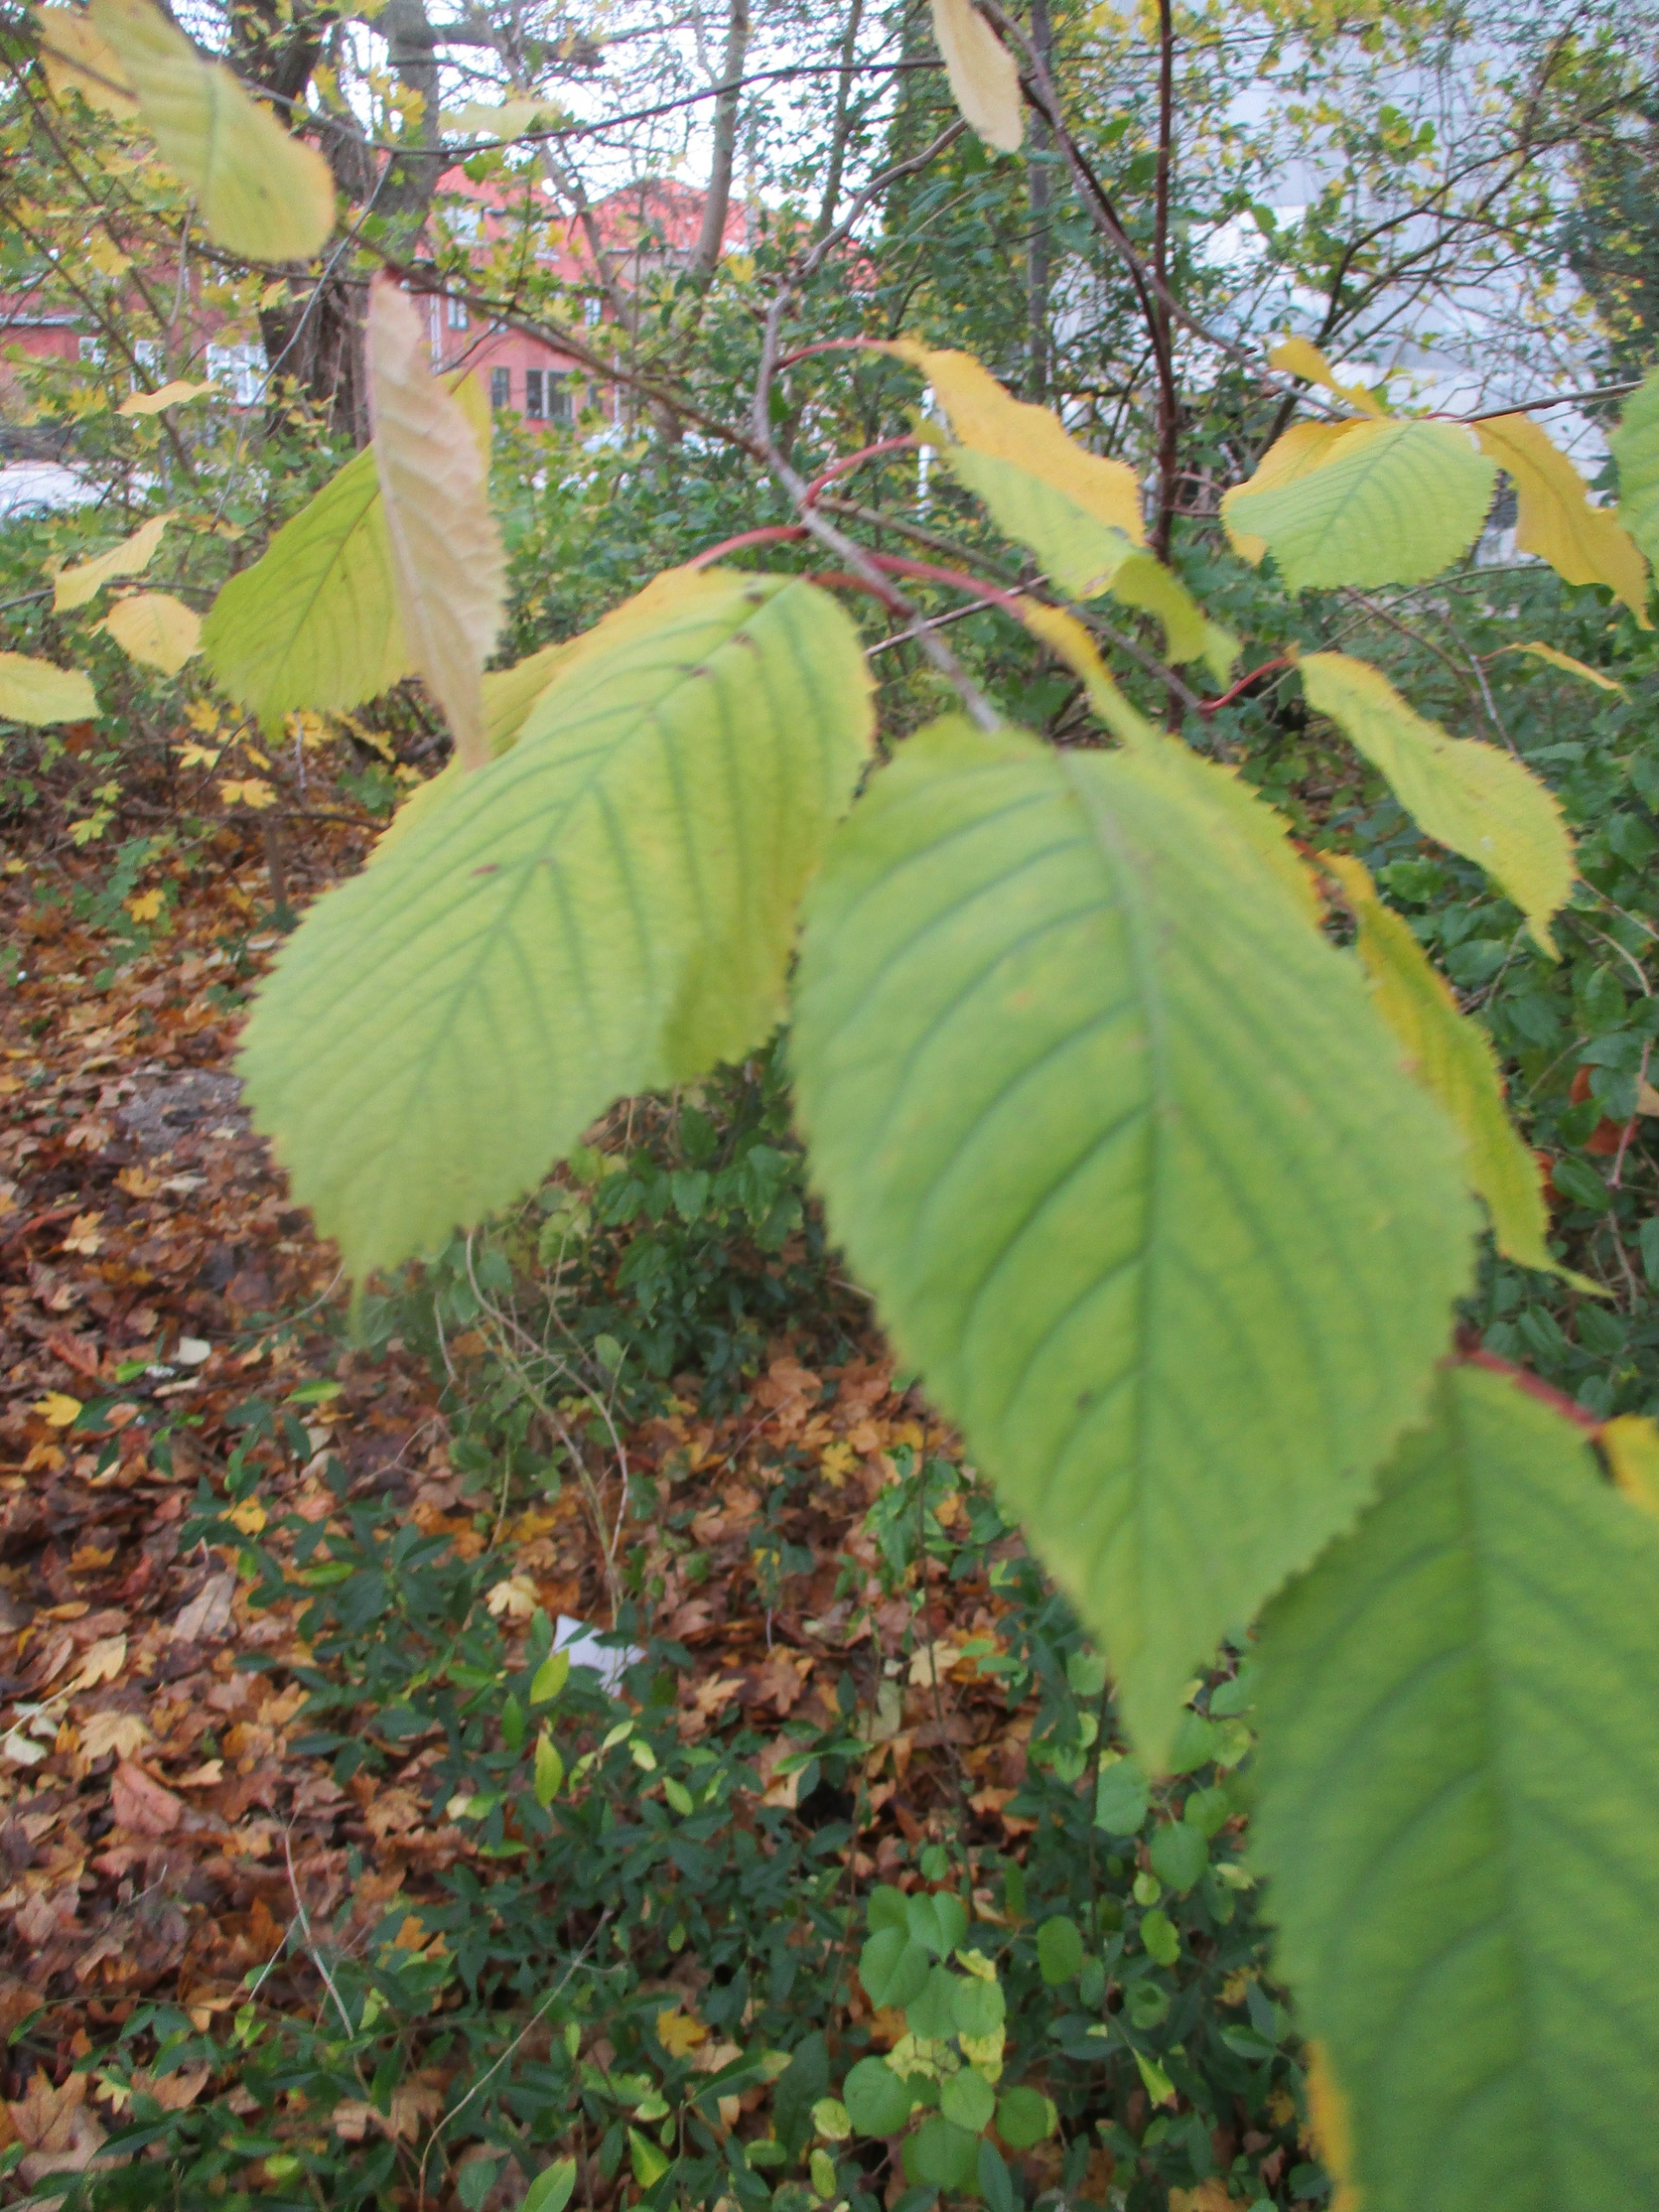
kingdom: Plantae
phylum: Tracheophyta
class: Magnoliopsida
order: Rosales
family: Rosaceae
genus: Prunus
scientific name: Prunus avium
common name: Fugle-kirsebær
